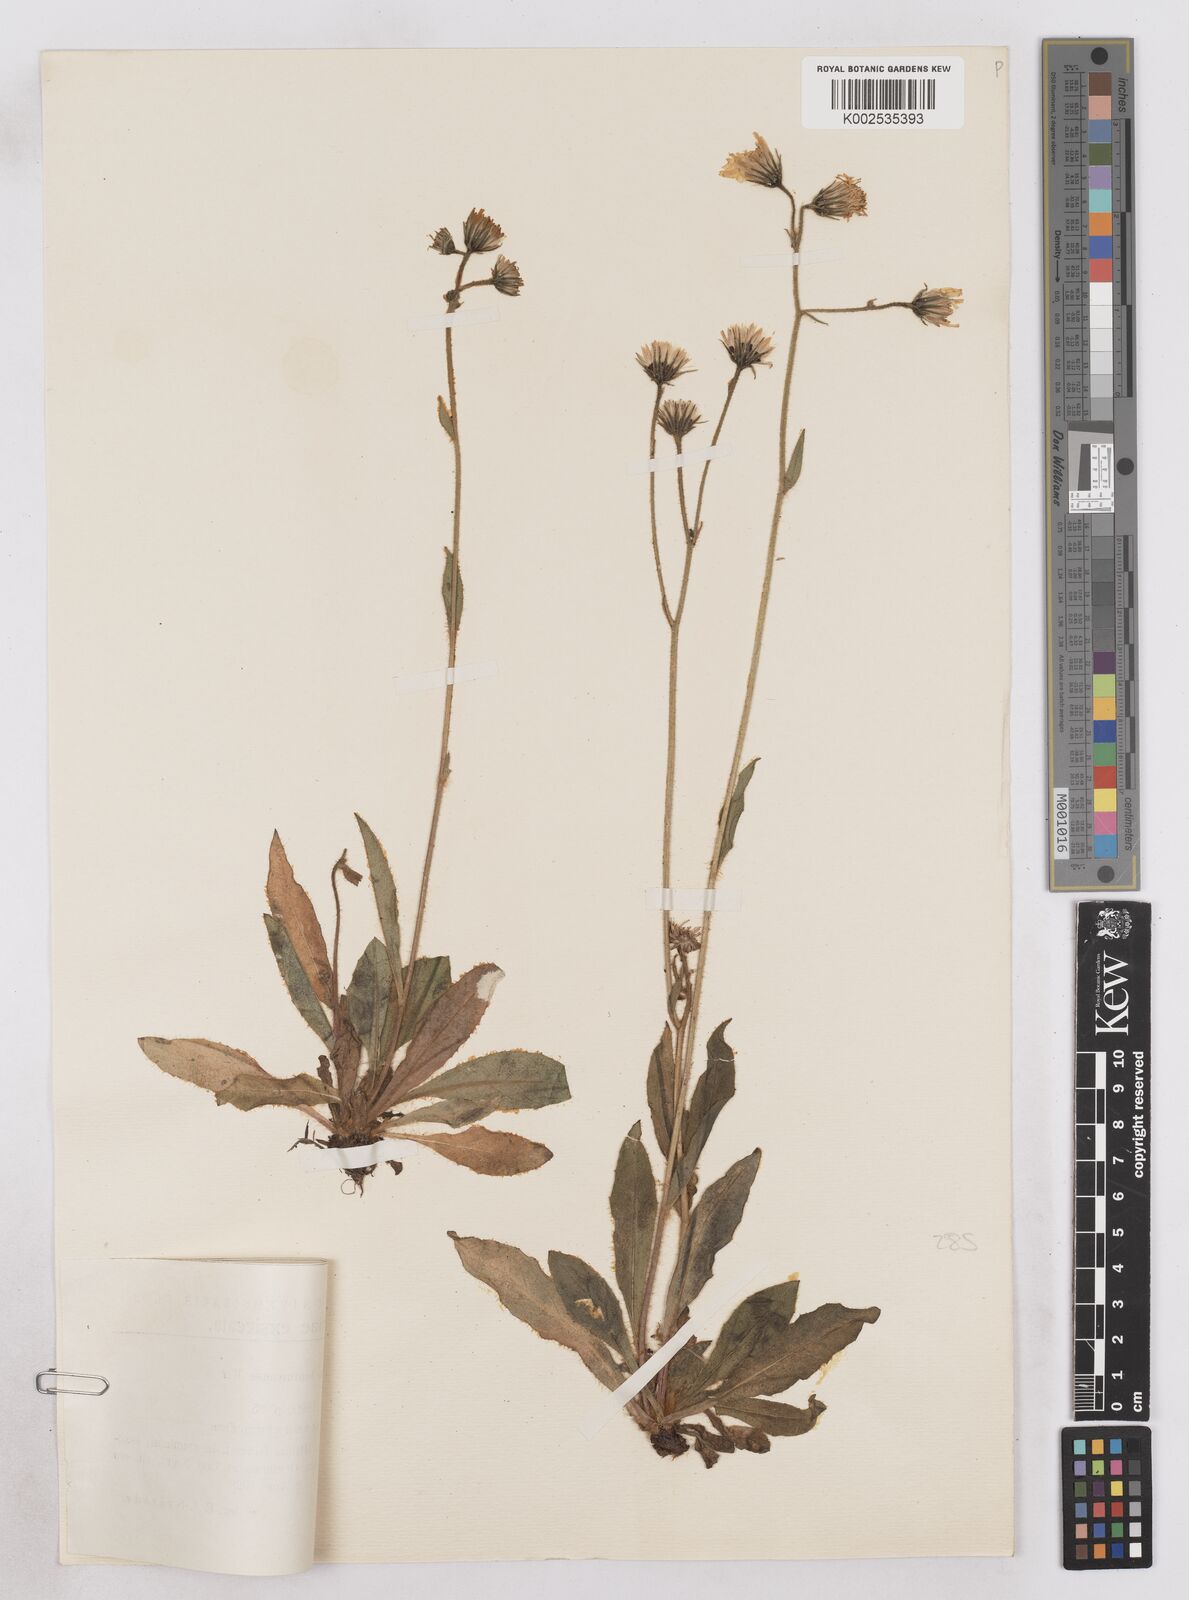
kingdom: Plantae
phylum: Tracheophyta
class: Magnoliopsida
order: Asterales
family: Asteraceae
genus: Hieracium
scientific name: Hieracium lomnicense
